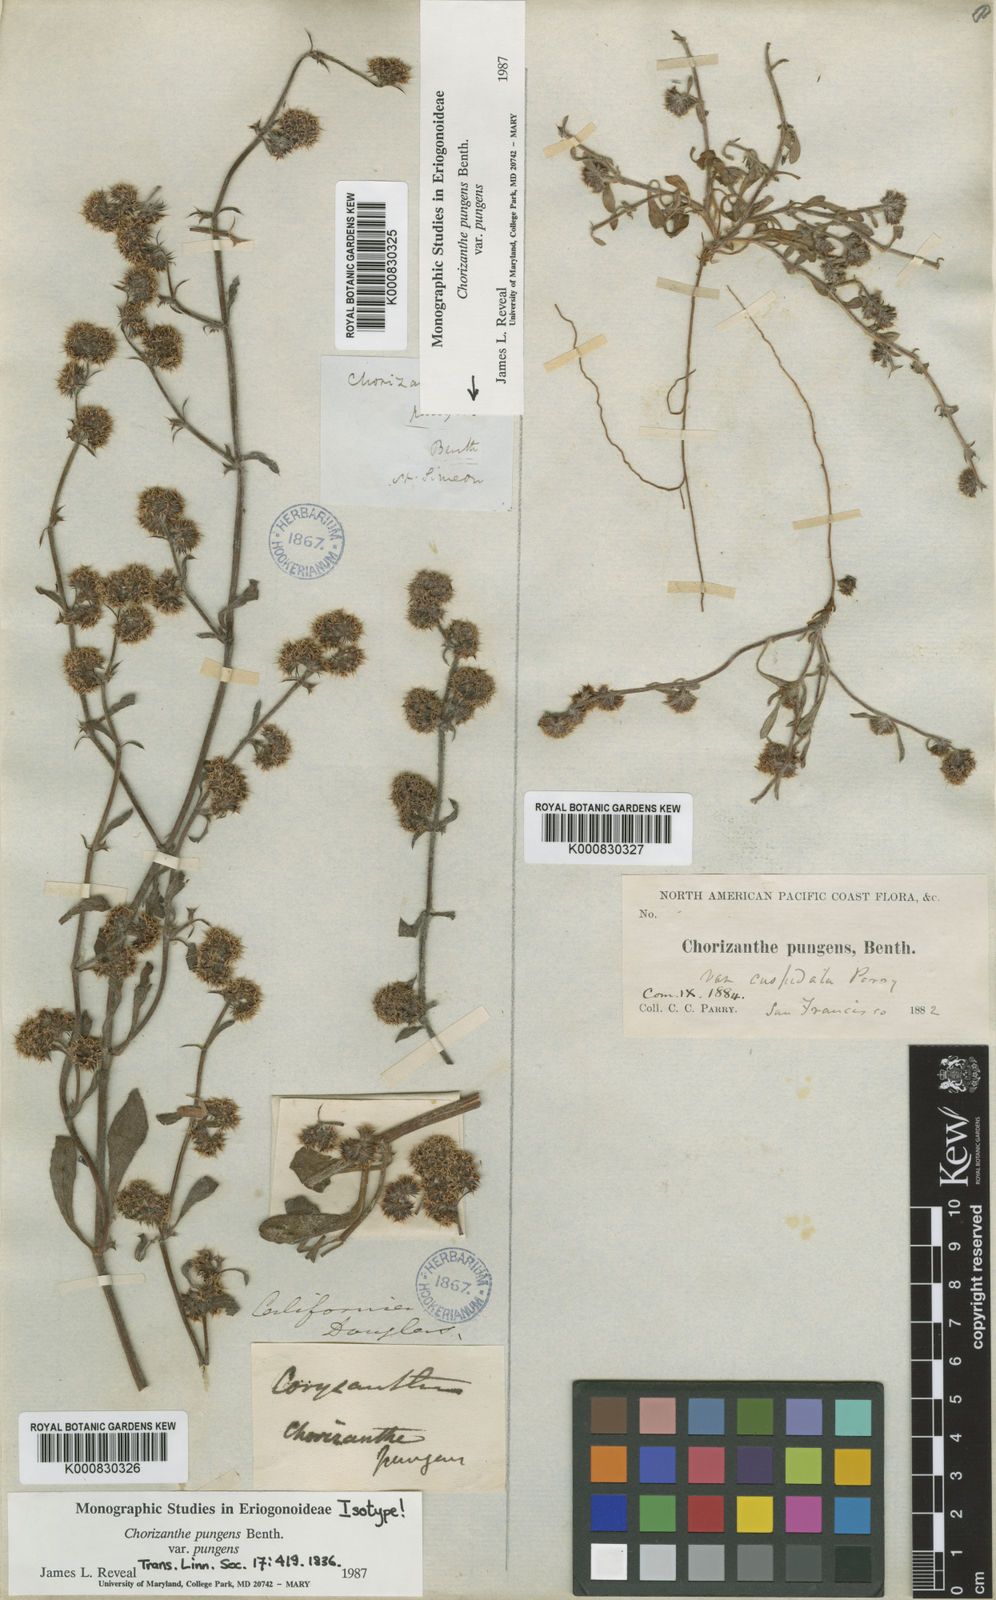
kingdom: Plantae
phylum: Tracheophyta
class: Magnoliopsida
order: Caryophyllales
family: Polygonaceae
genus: Chorizanthe
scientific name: Chorizanthe pungens
